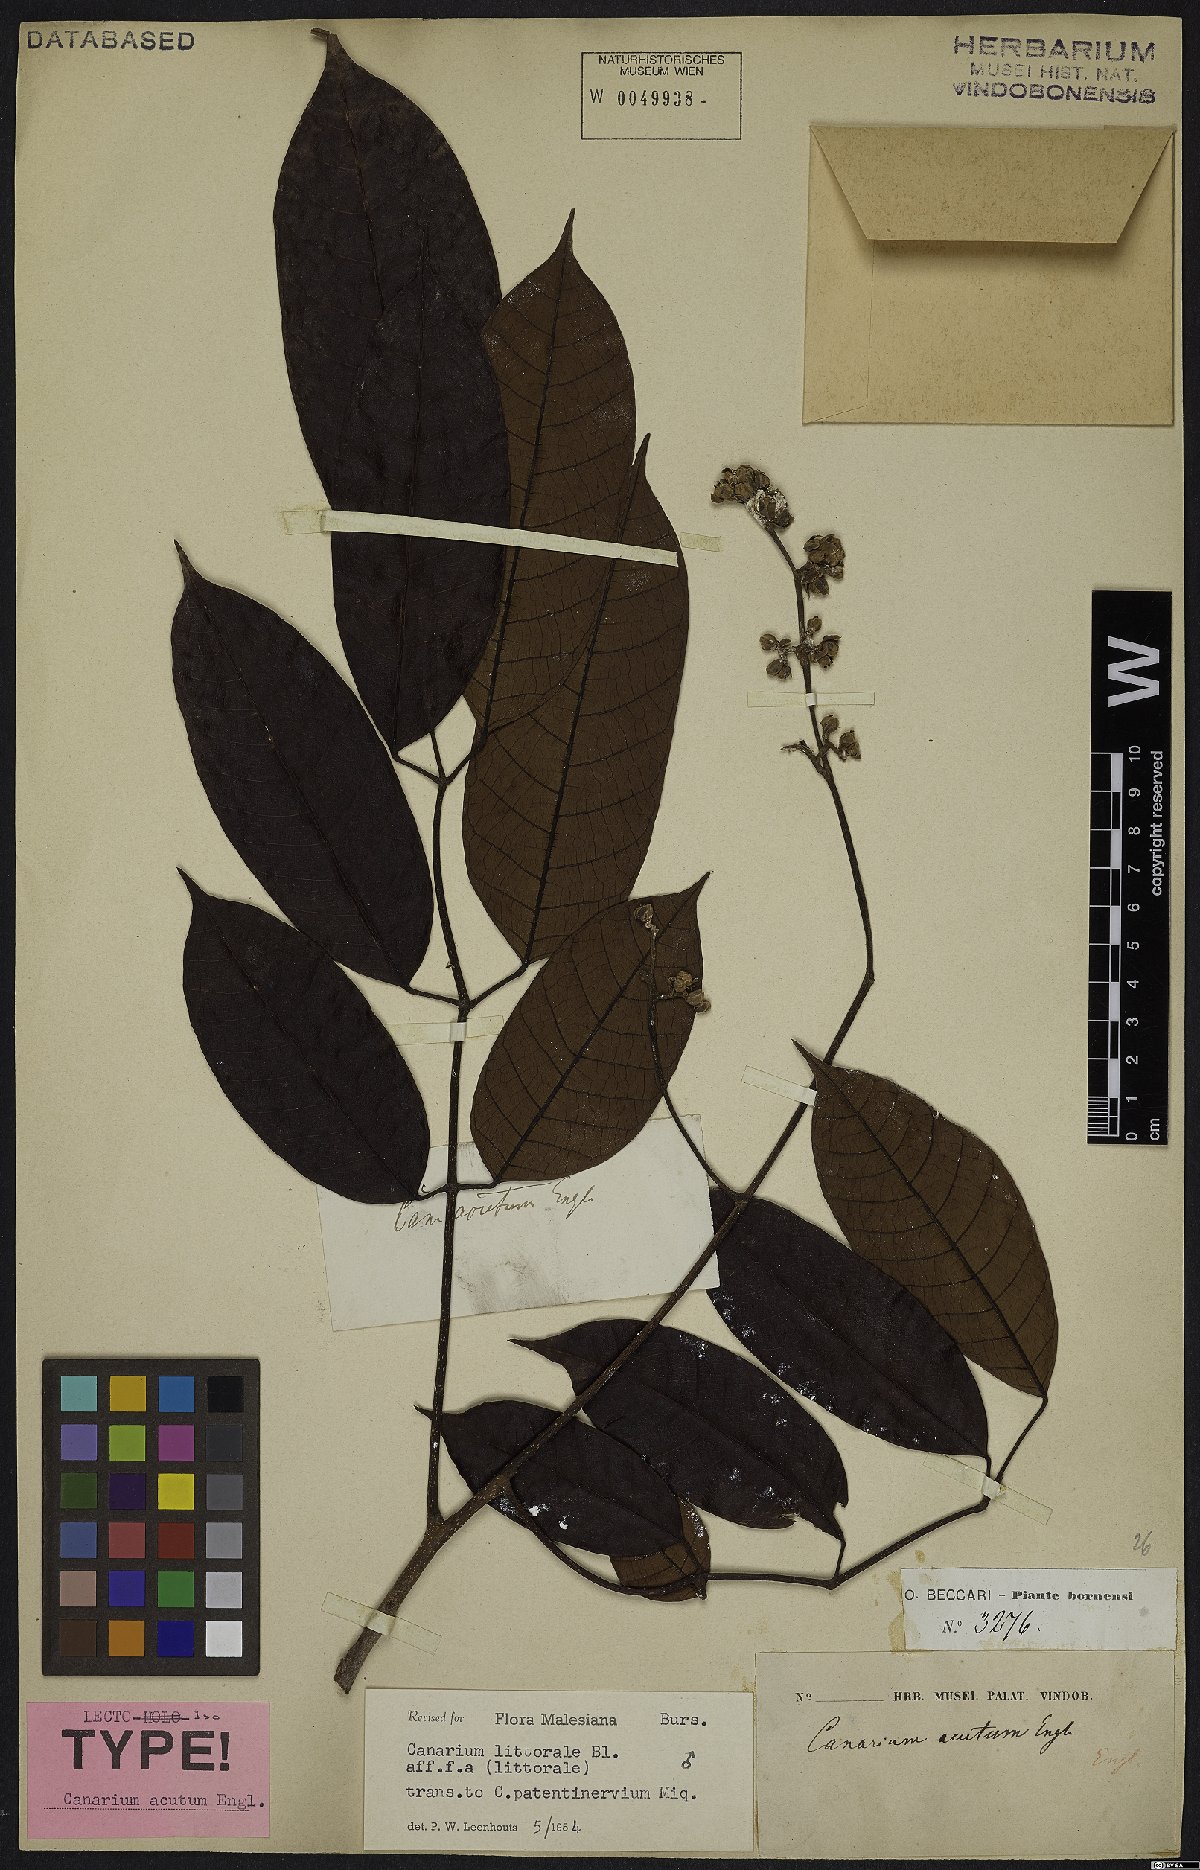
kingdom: Plantae
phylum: Tracheophyta
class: Magnoliopsida
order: Sapindales
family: Burseraceae
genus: Canarium
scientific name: Canarium littorale
